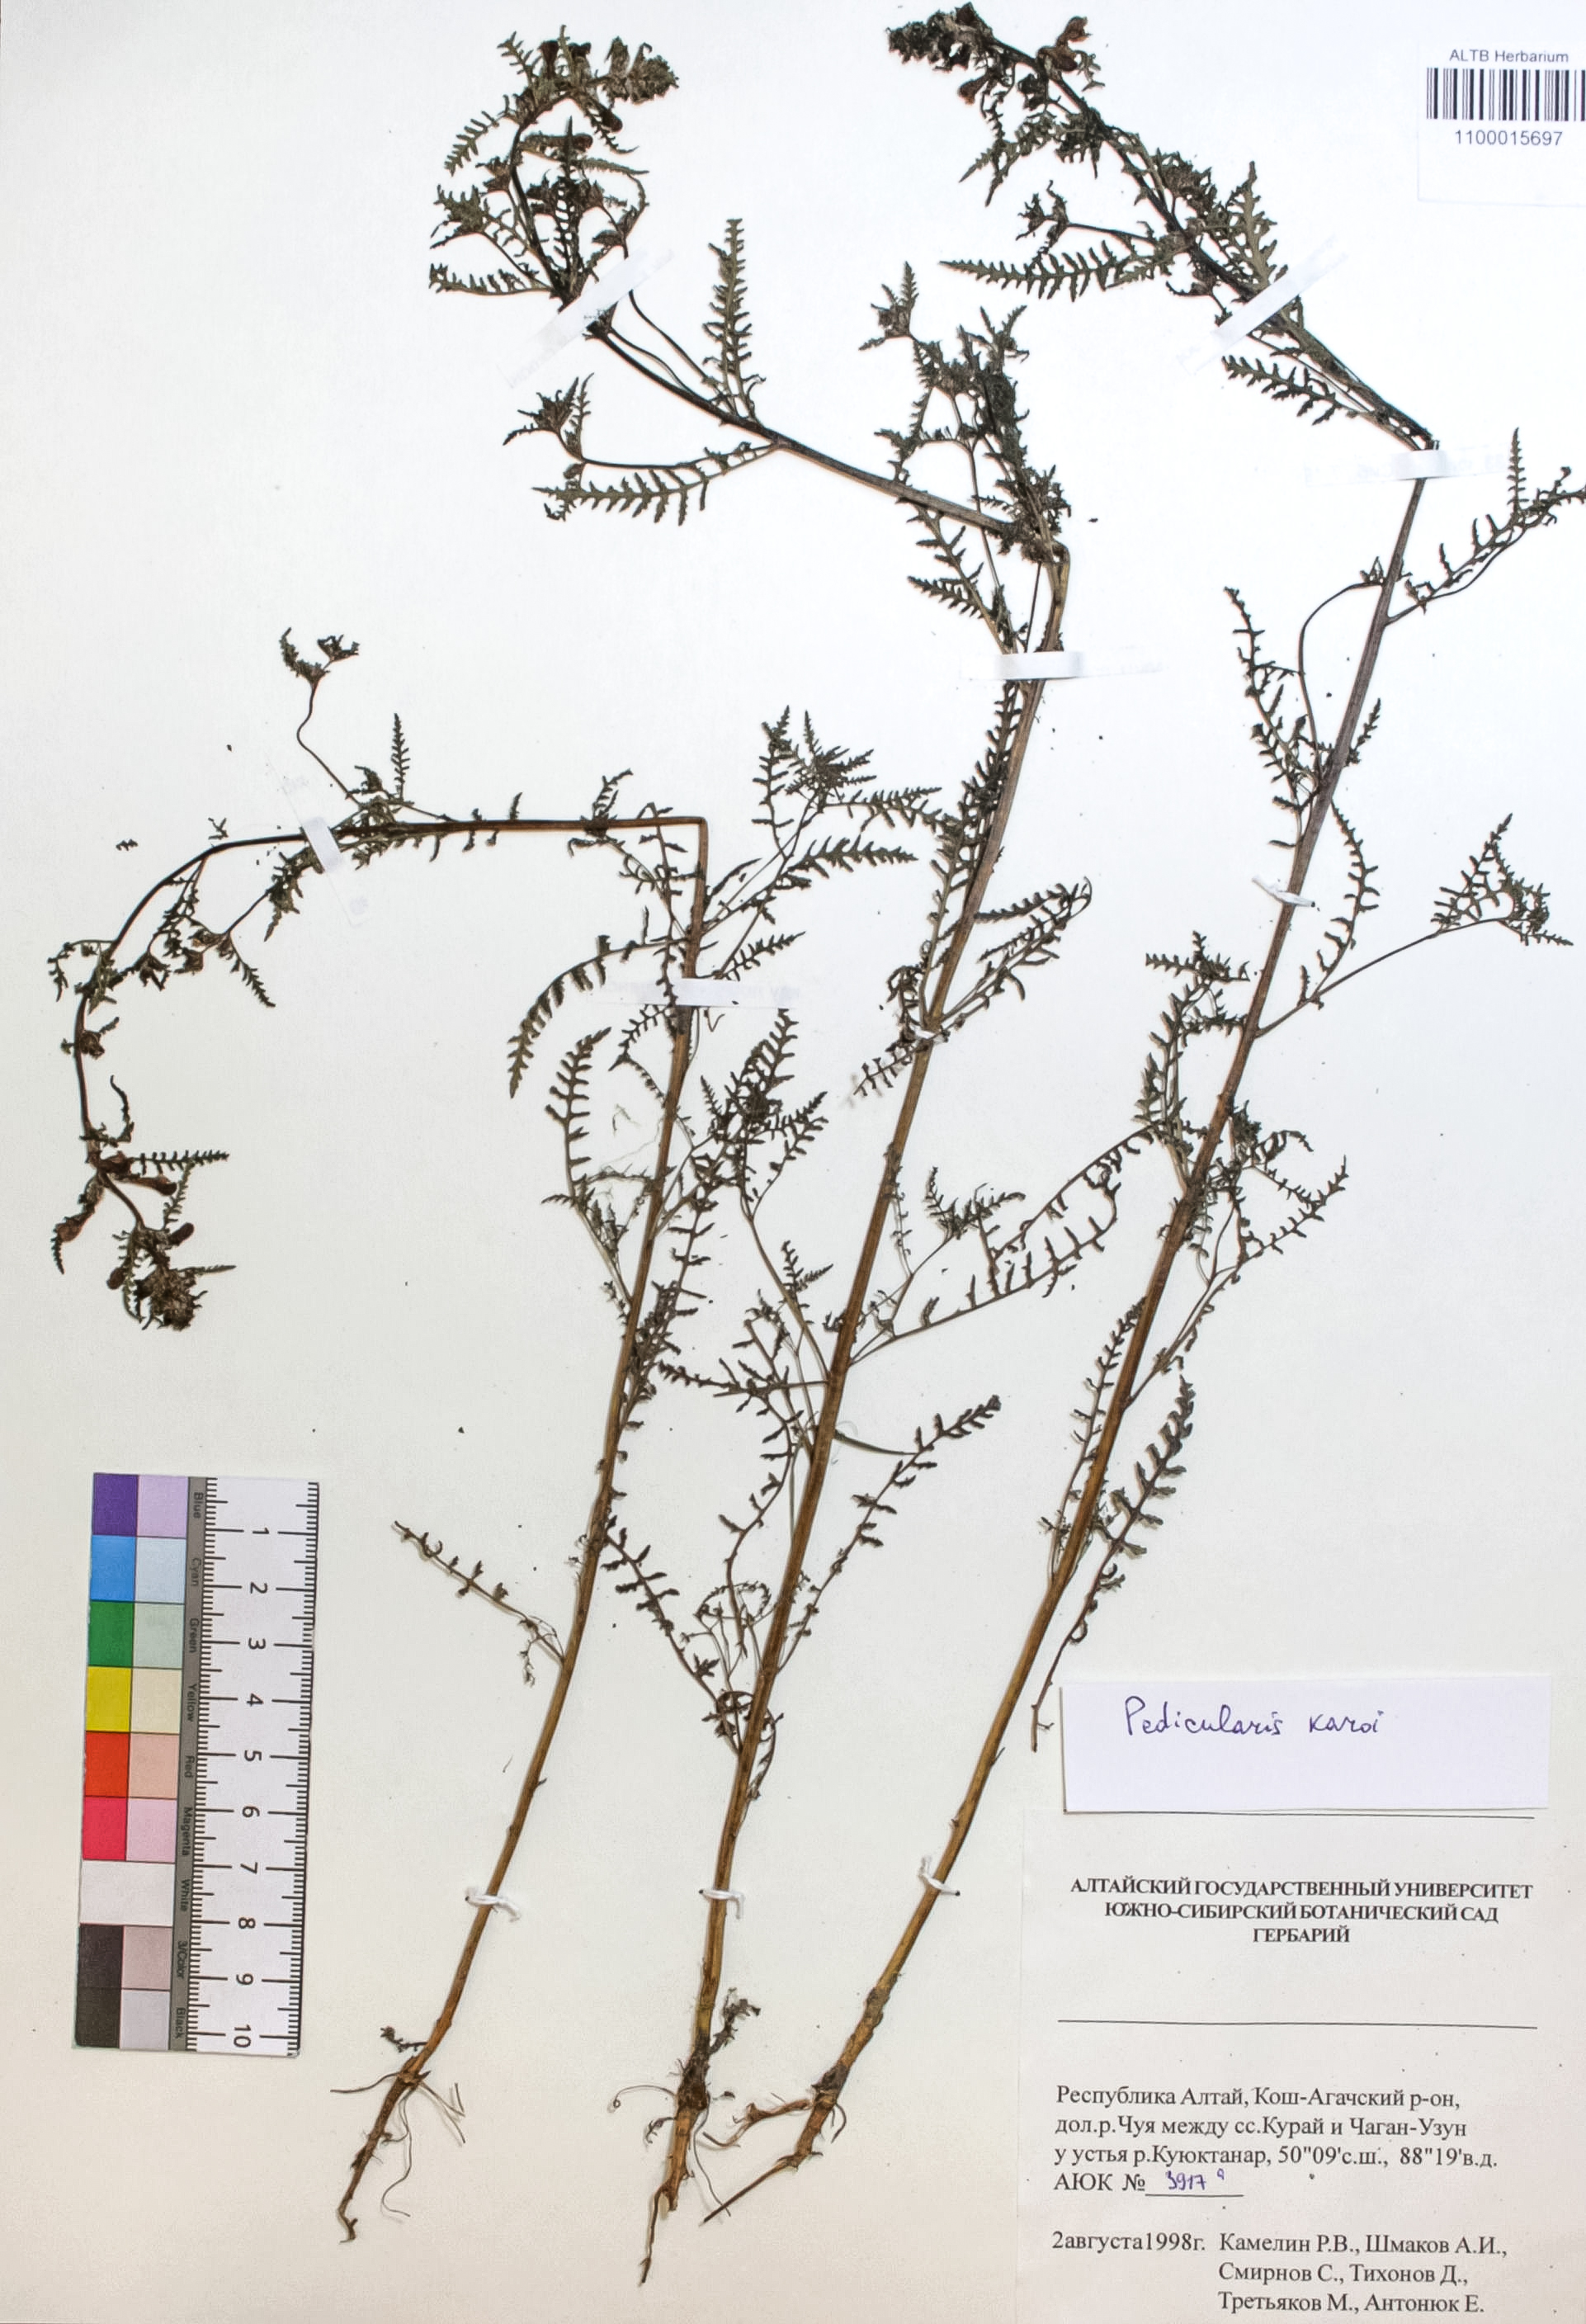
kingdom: Plantae
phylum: Tracheophyta
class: Magnoliopsida
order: Lamiales
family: Orobanchaceae
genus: Pedicularis
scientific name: Pedicularis karoi
